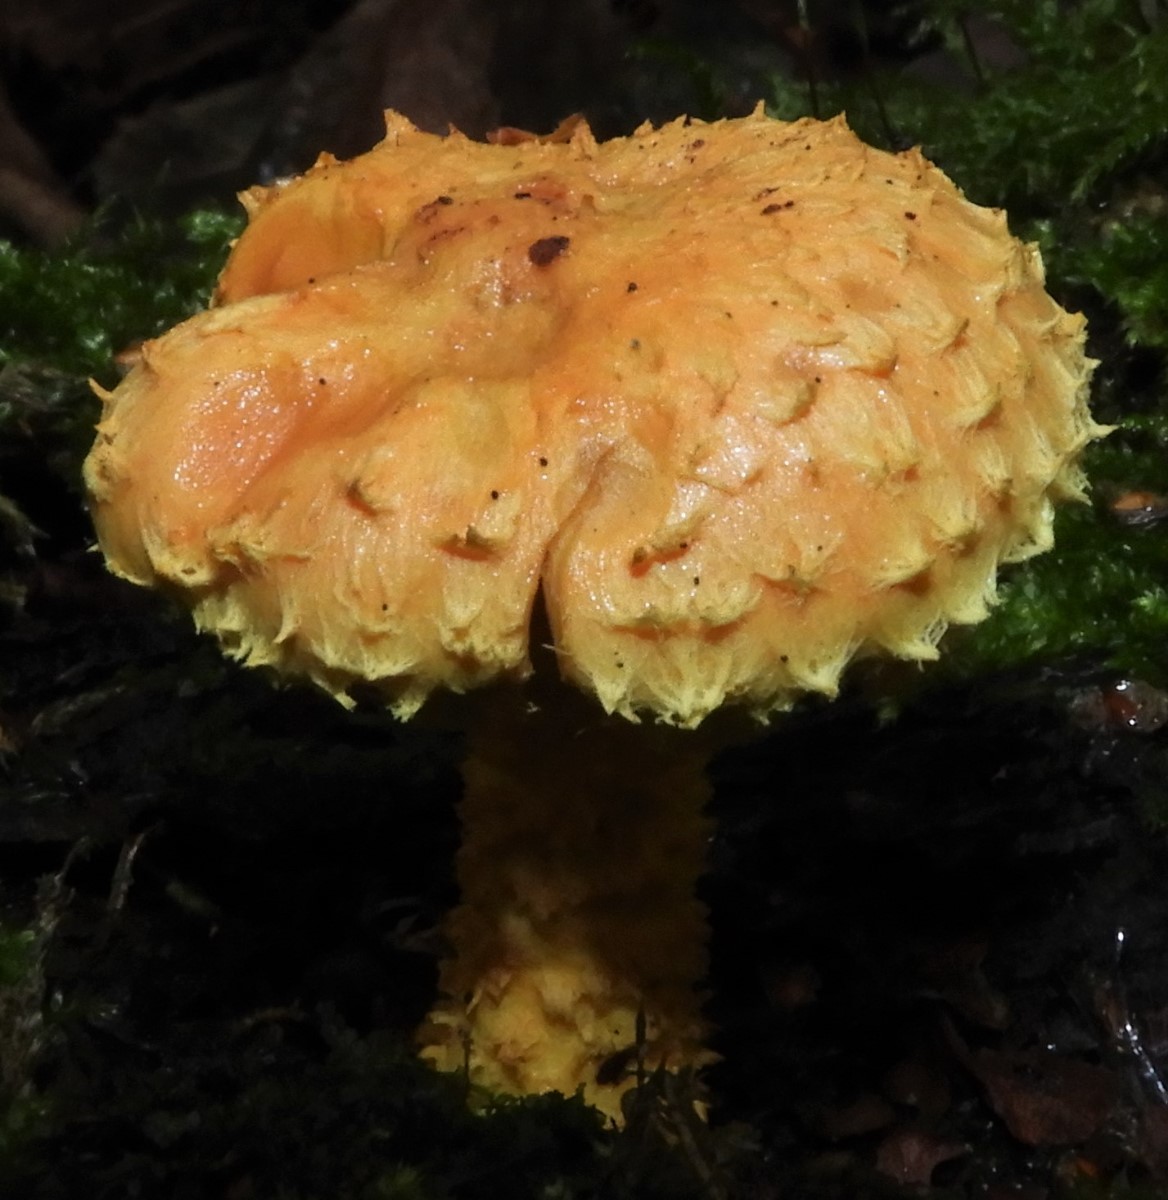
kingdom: Fungi
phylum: Basidiomycota
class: Agaricomycetes
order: Agaricales
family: Strophariaceae
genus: Pholiota
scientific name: Pholiota flammans
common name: flamme-skælhat
